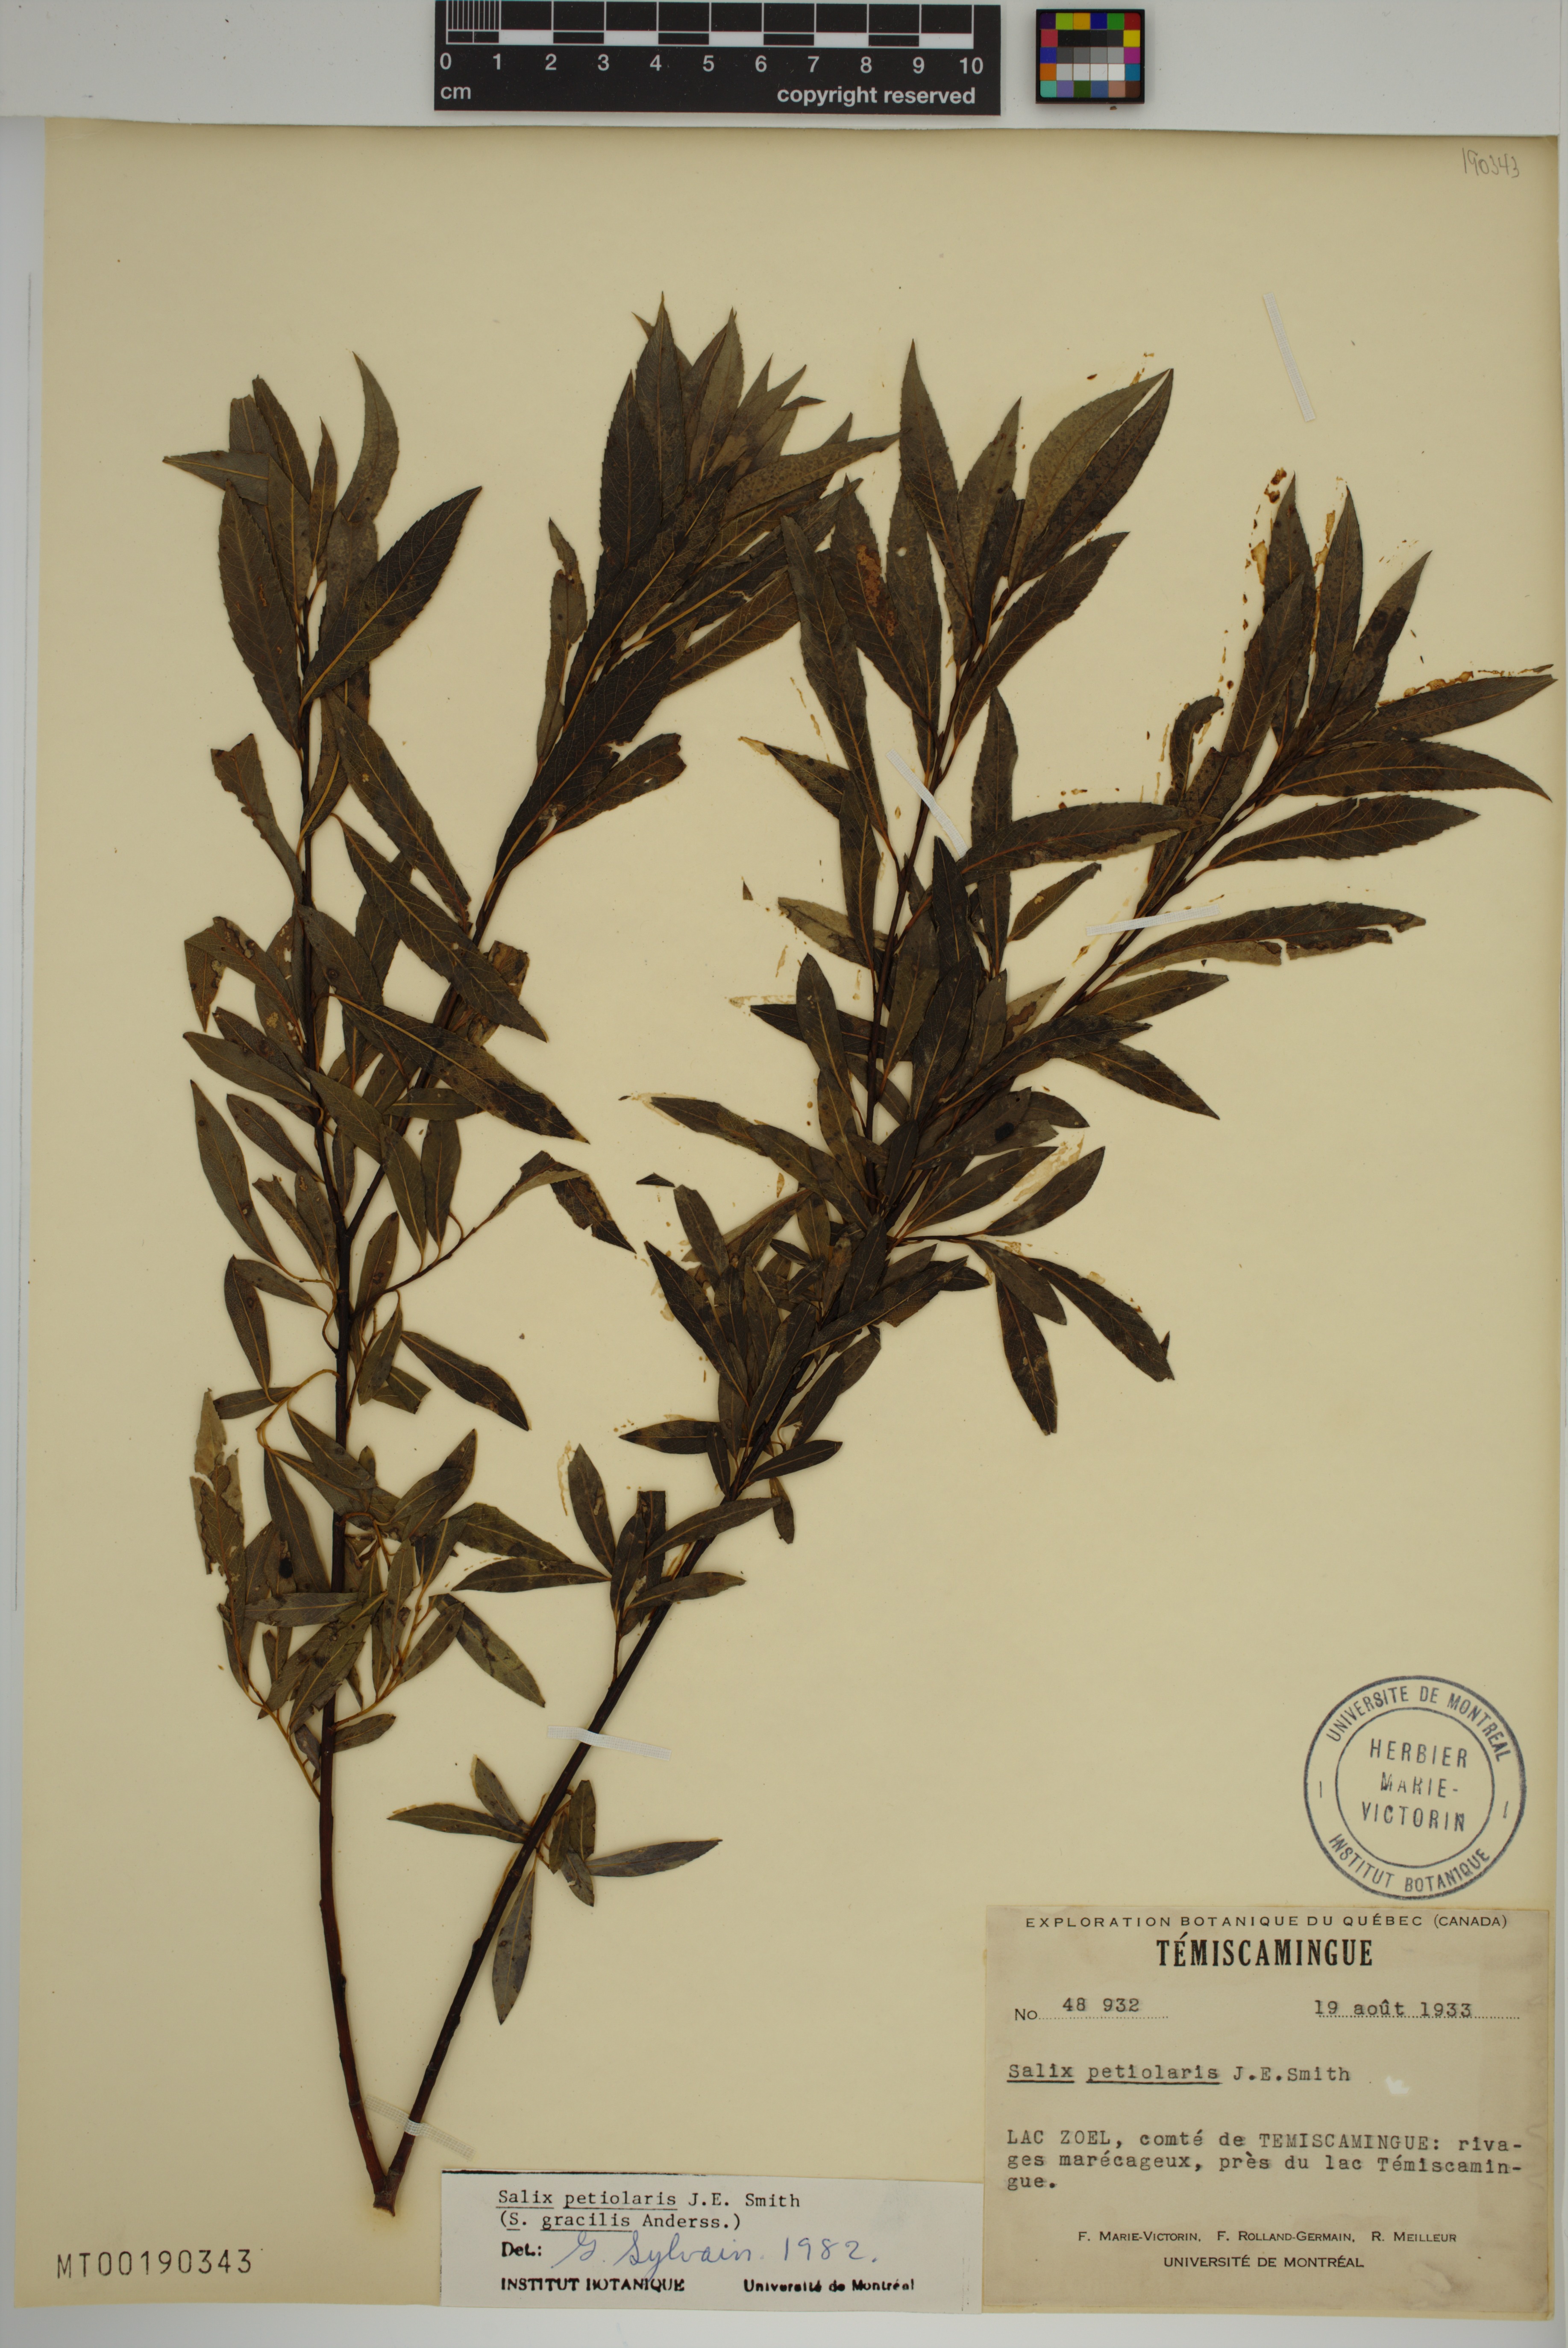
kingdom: Plantae
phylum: Tracheophyta
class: Magnoliopsida
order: Malpighiales
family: Salicaceae
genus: Salix
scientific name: Salix petiolaris
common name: Slender willow
